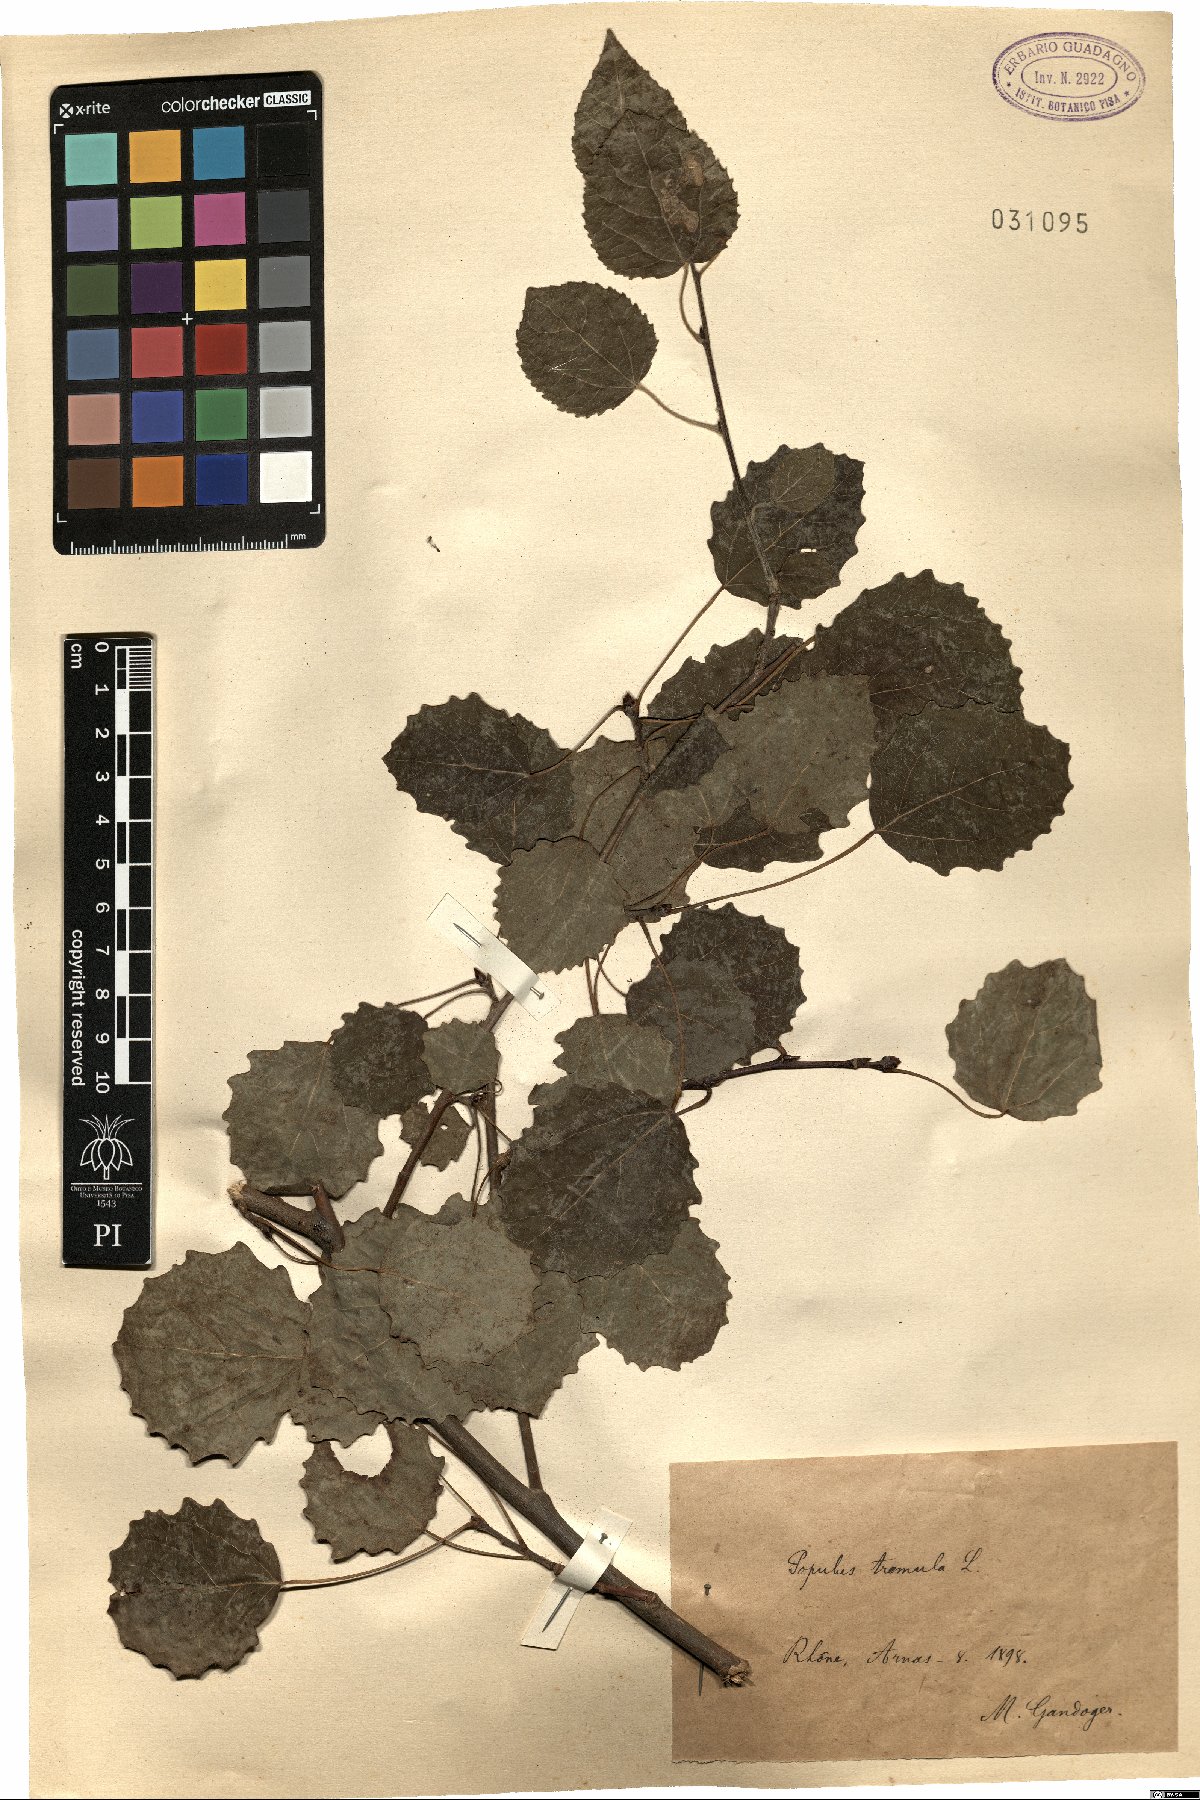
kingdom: Plantae
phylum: Tracheophyta
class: Magnoliopsida
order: Malpighiales
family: Salicaceae
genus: Populus
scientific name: Populus tremula
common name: European aspen
